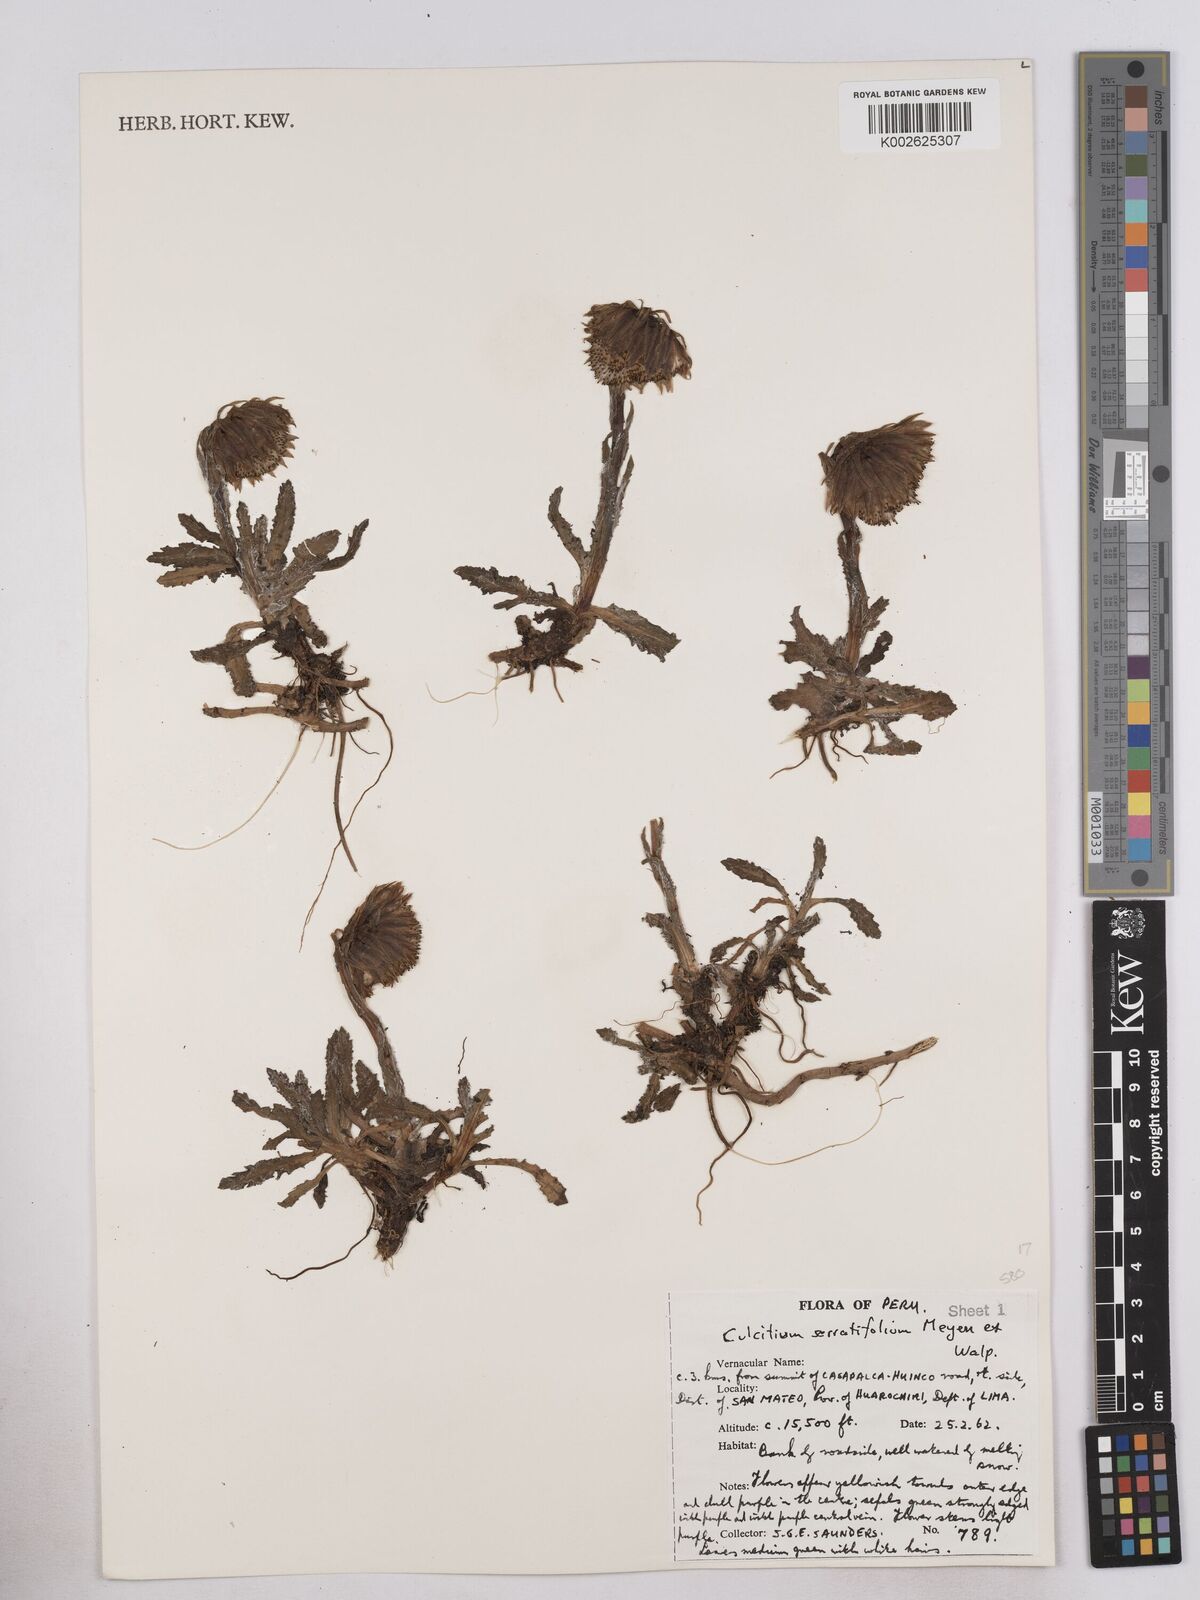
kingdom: Plantae
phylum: Tracheophyta
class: Magnoliopsida
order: Asterales
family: Asteraceae
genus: Senecio
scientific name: Senecio serratifolius
